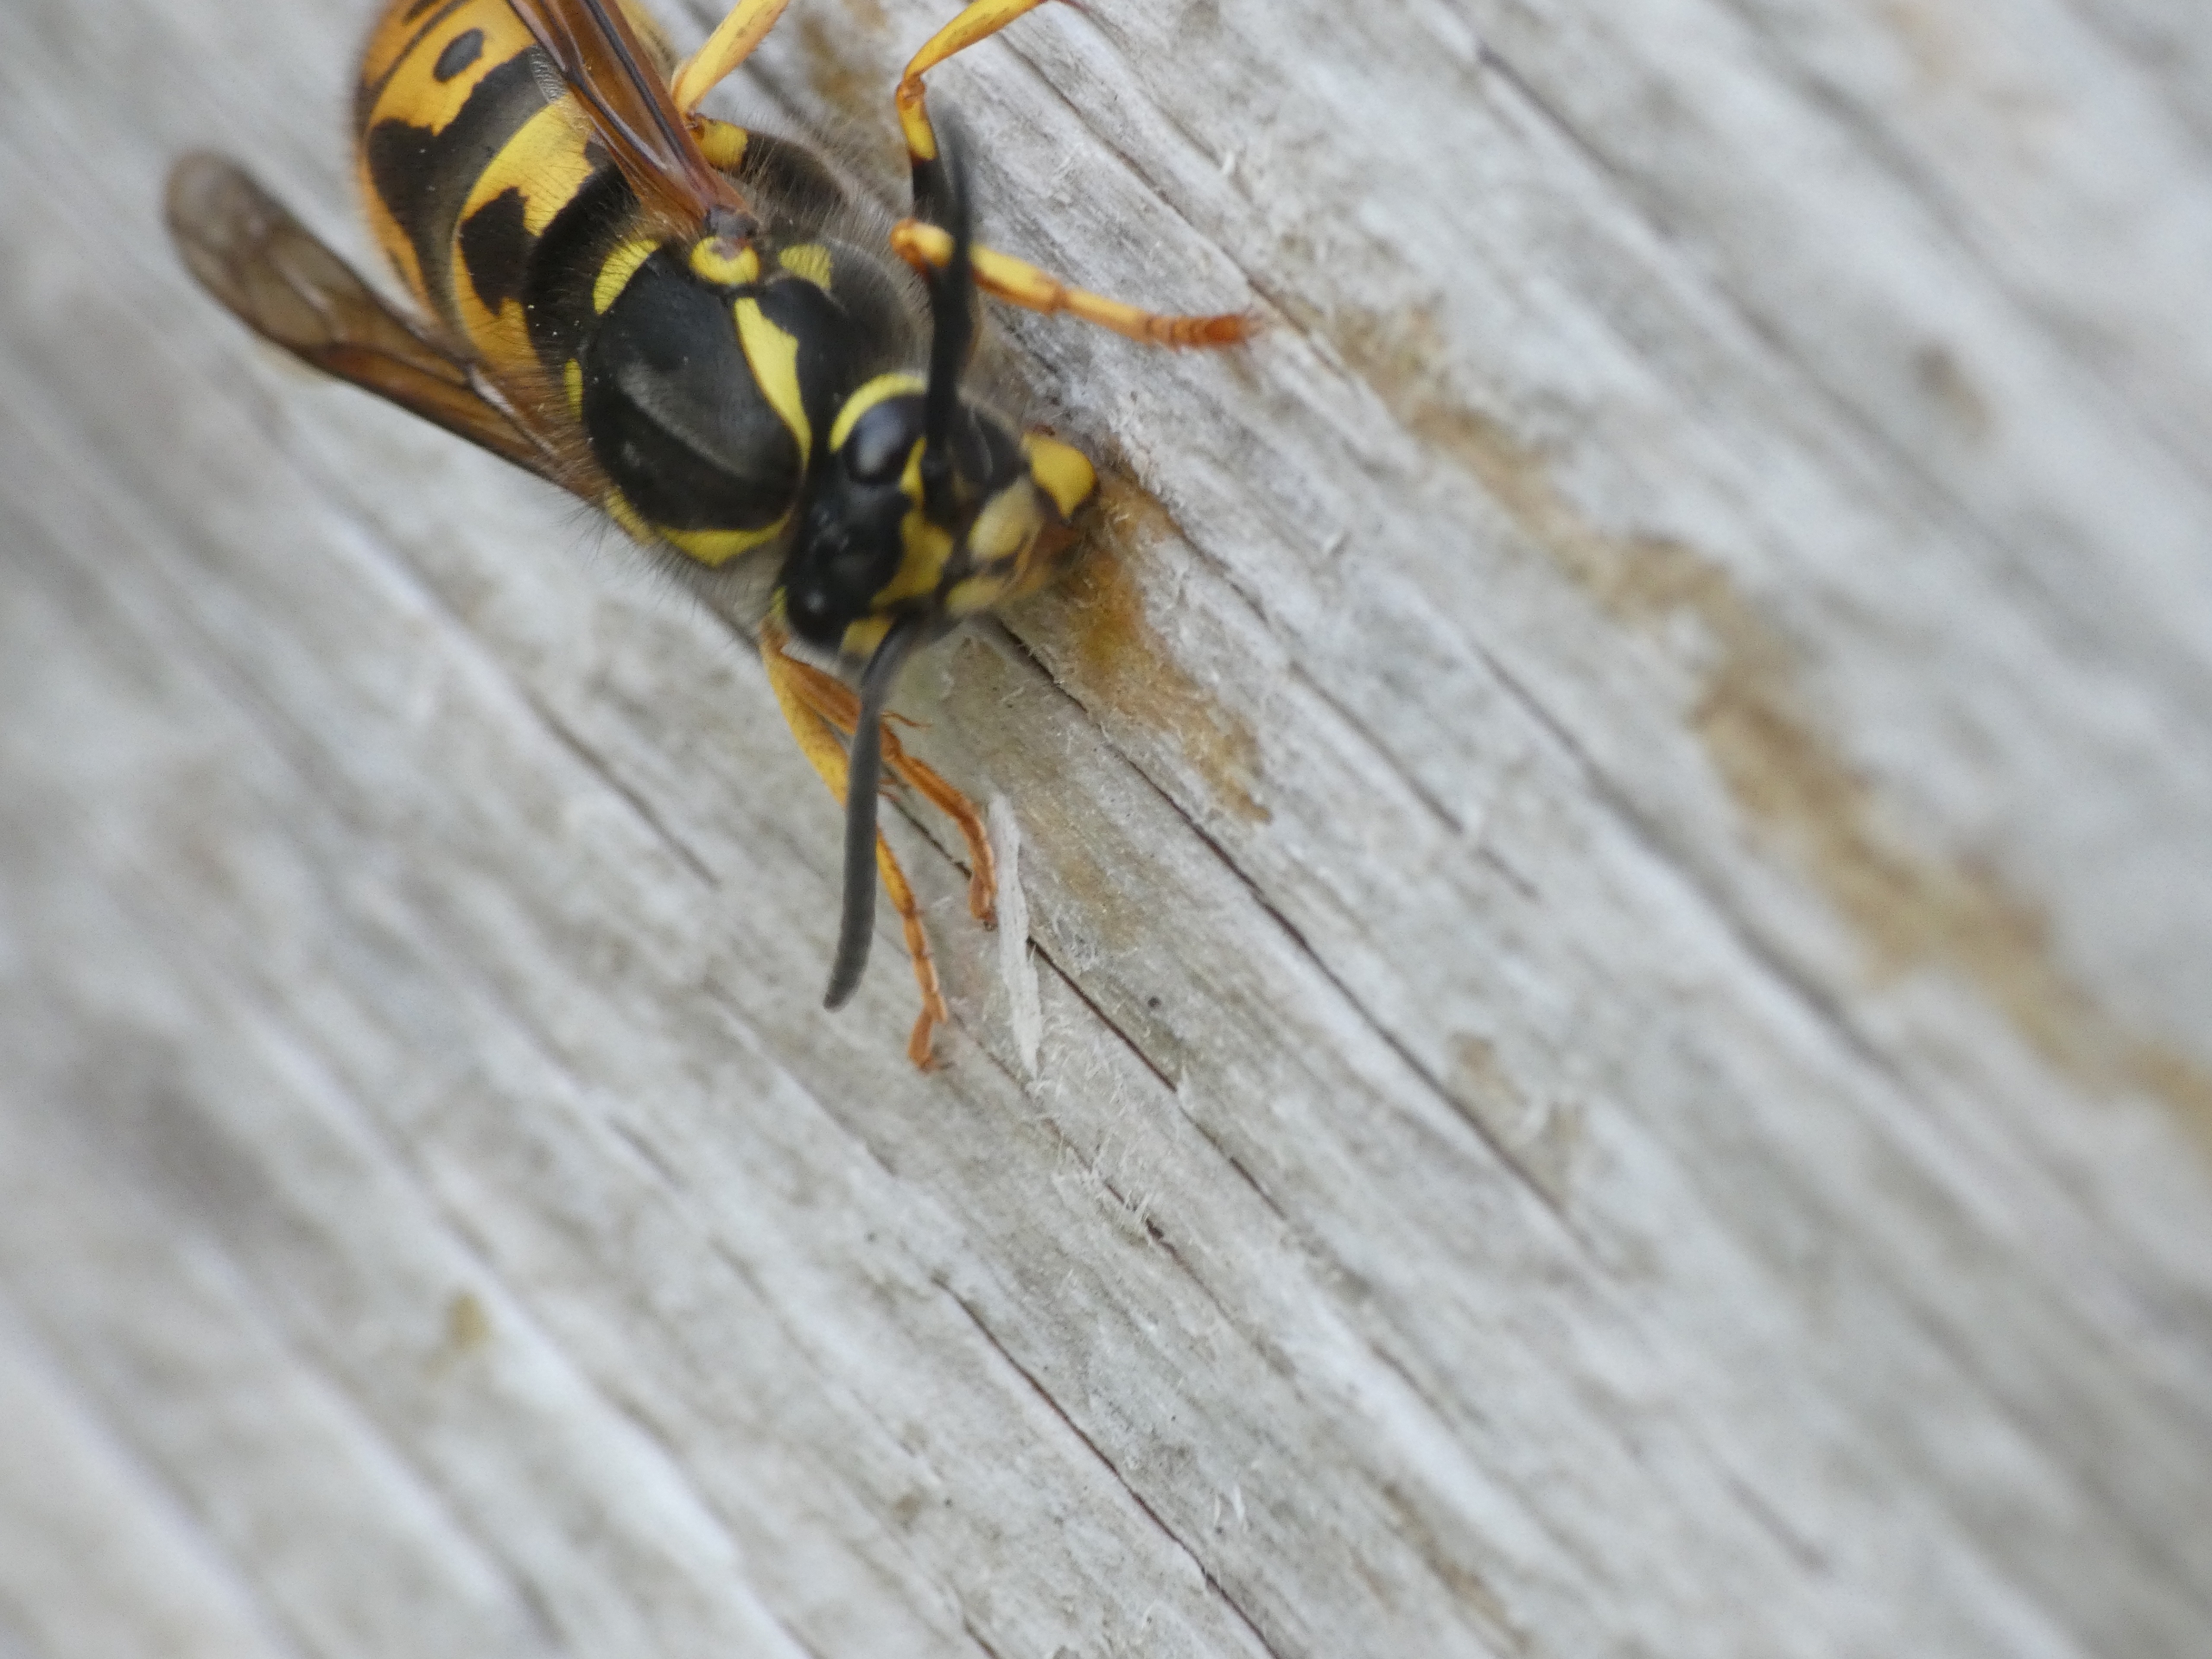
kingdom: Animalia
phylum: Arthropoda
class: Insecta
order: Hymenoptera
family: Vespidae
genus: Vespula
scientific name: Vespula vulgaris
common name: Almindelig gedehams
